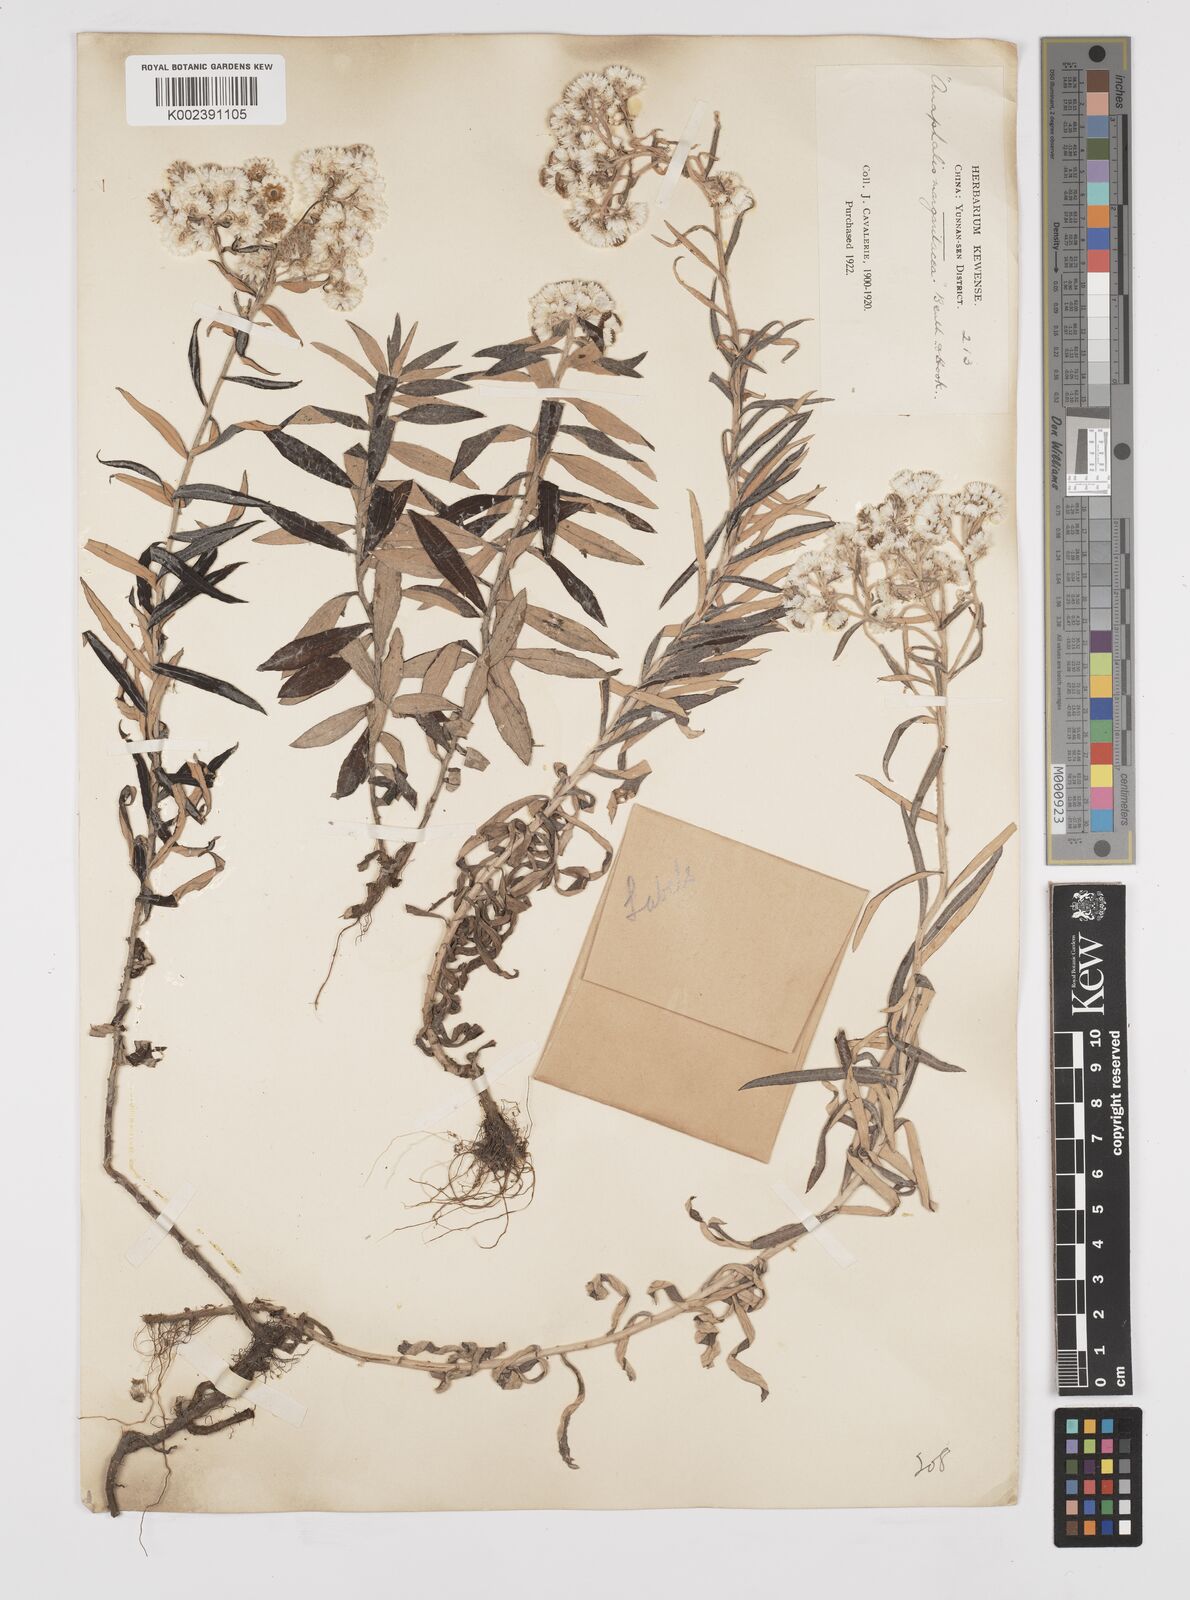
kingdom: Plantae
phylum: Tracheophyta
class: Magnoliopsida
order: Asterales
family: Asteraceae
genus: Anaphalis
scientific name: Anaphalis margaritacea
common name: Pearly everlasting
